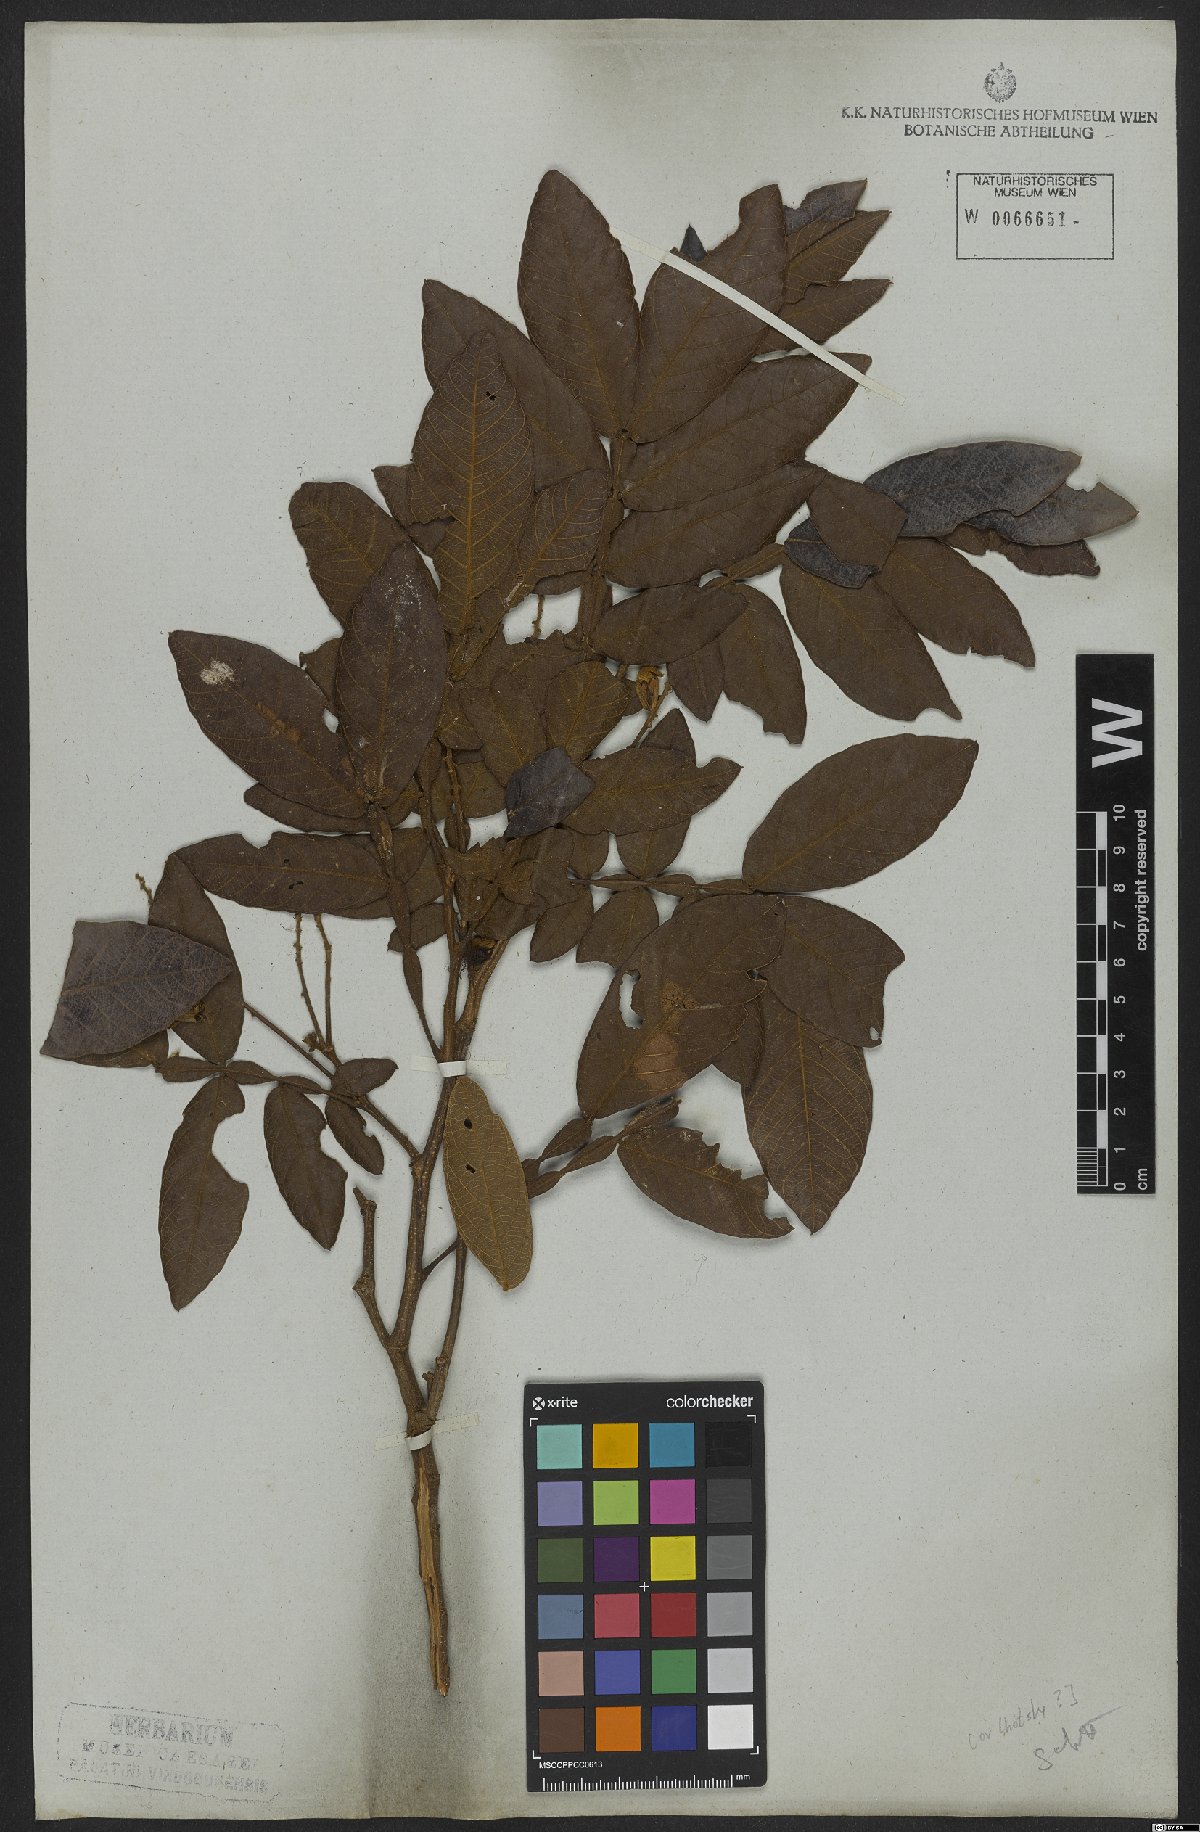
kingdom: Plantae
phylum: Tracheophyta
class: Magnoliopsida
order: Fabales
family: Fabaceae
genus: Inga
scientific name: Inga pilosula
